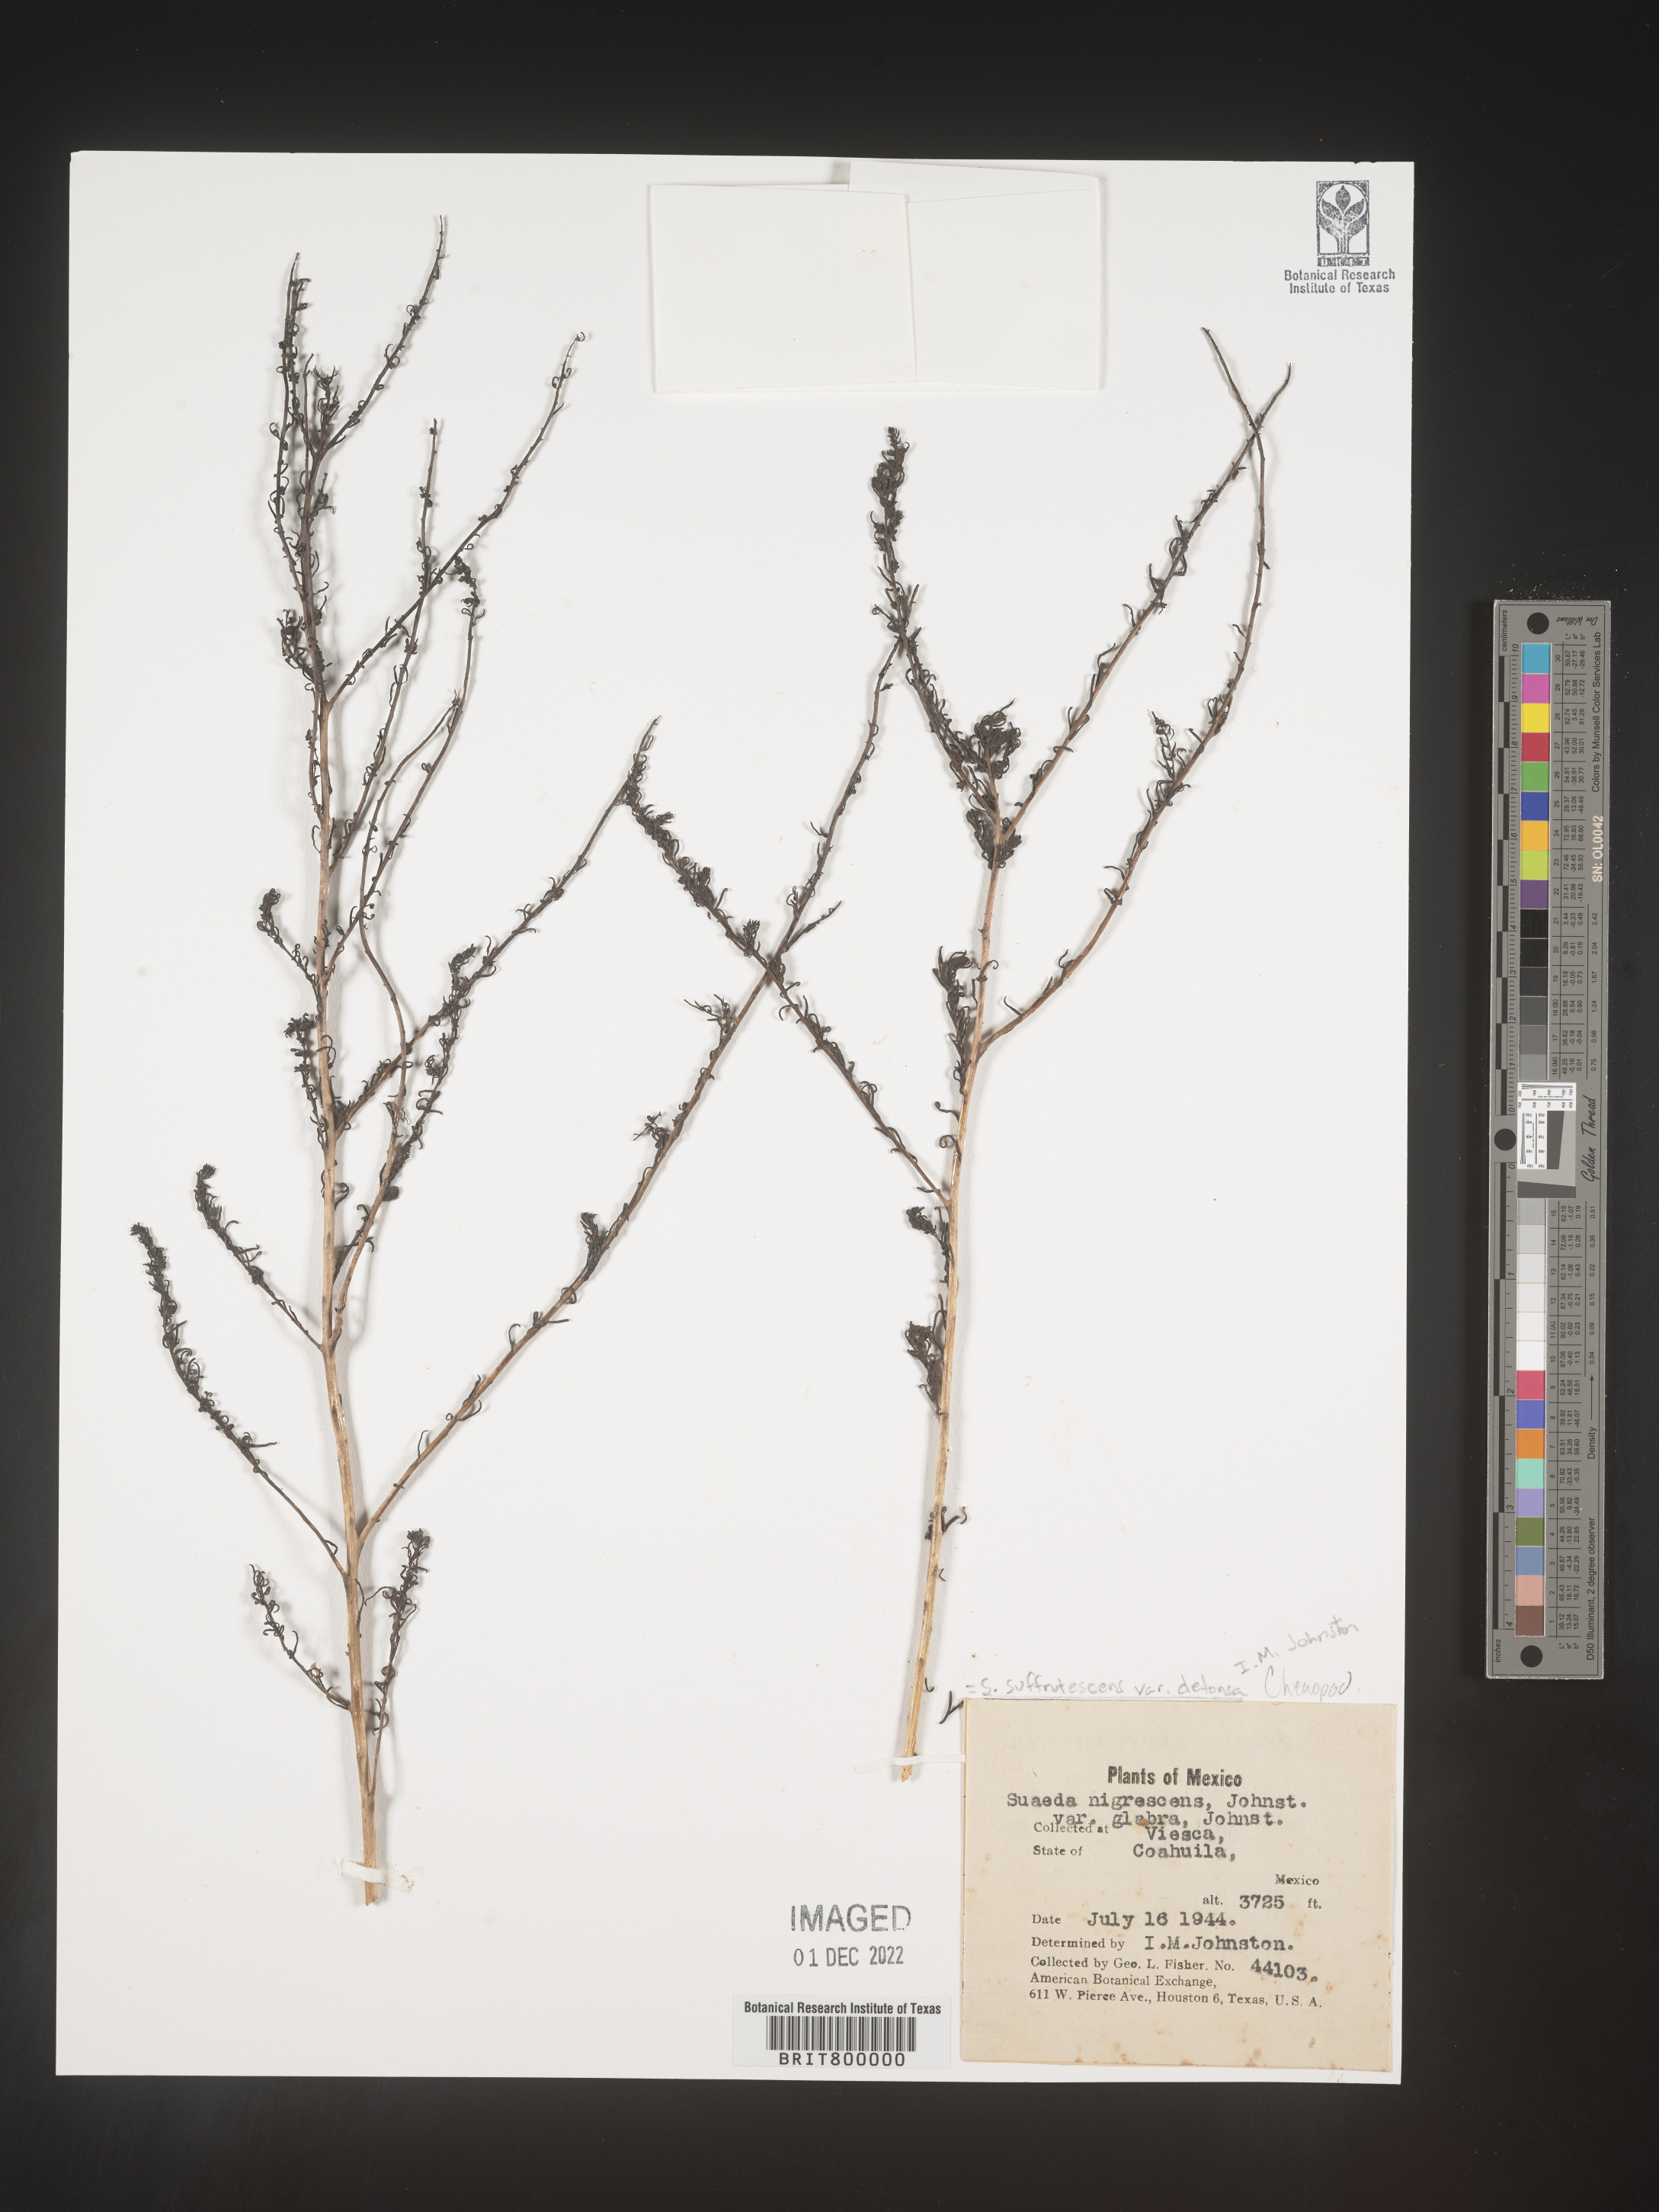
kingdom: Plantae
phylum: Tracheophyta
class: Magnoliopsida
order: Caryophyllales
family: Amaranthaceae
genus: Suaeda
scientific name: Suaeda
